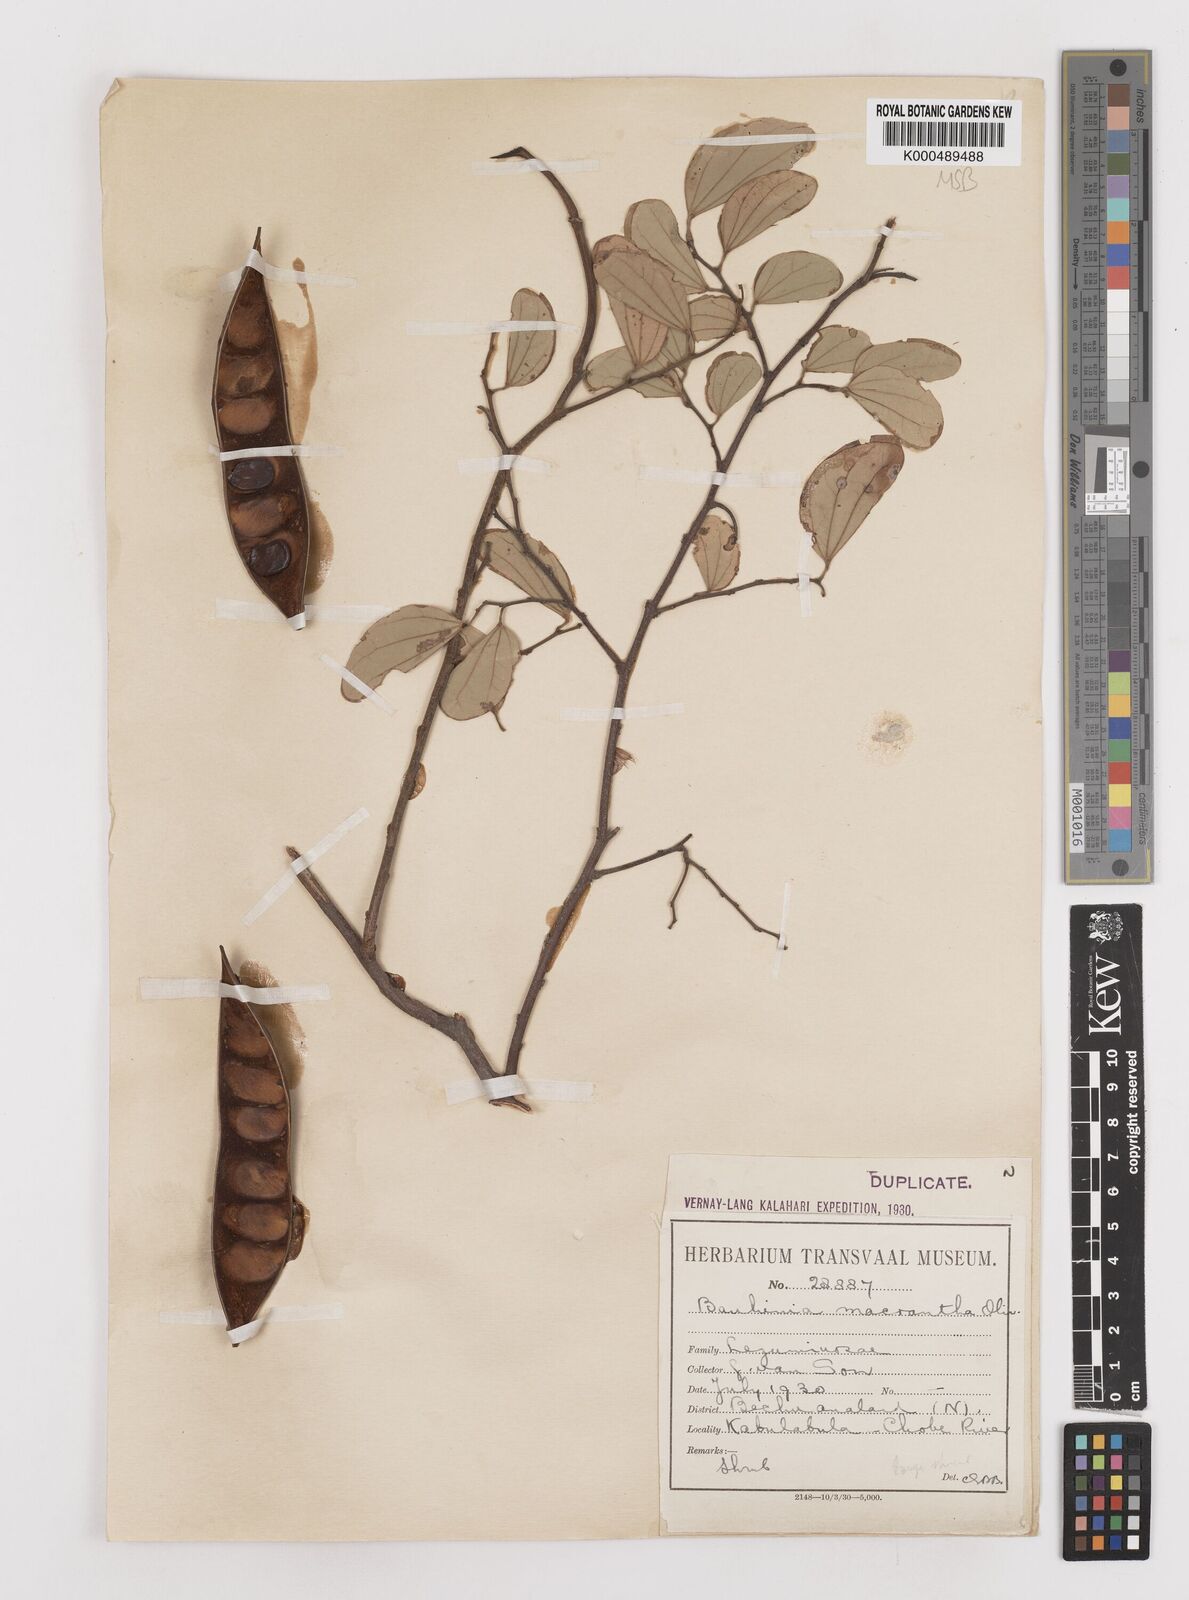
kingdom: Plantae
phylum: Tracheophyta
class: Magnoliopsida
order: Fabales
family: Fabaceae
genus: Bauhinia
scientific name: Bauhinia macrantha
